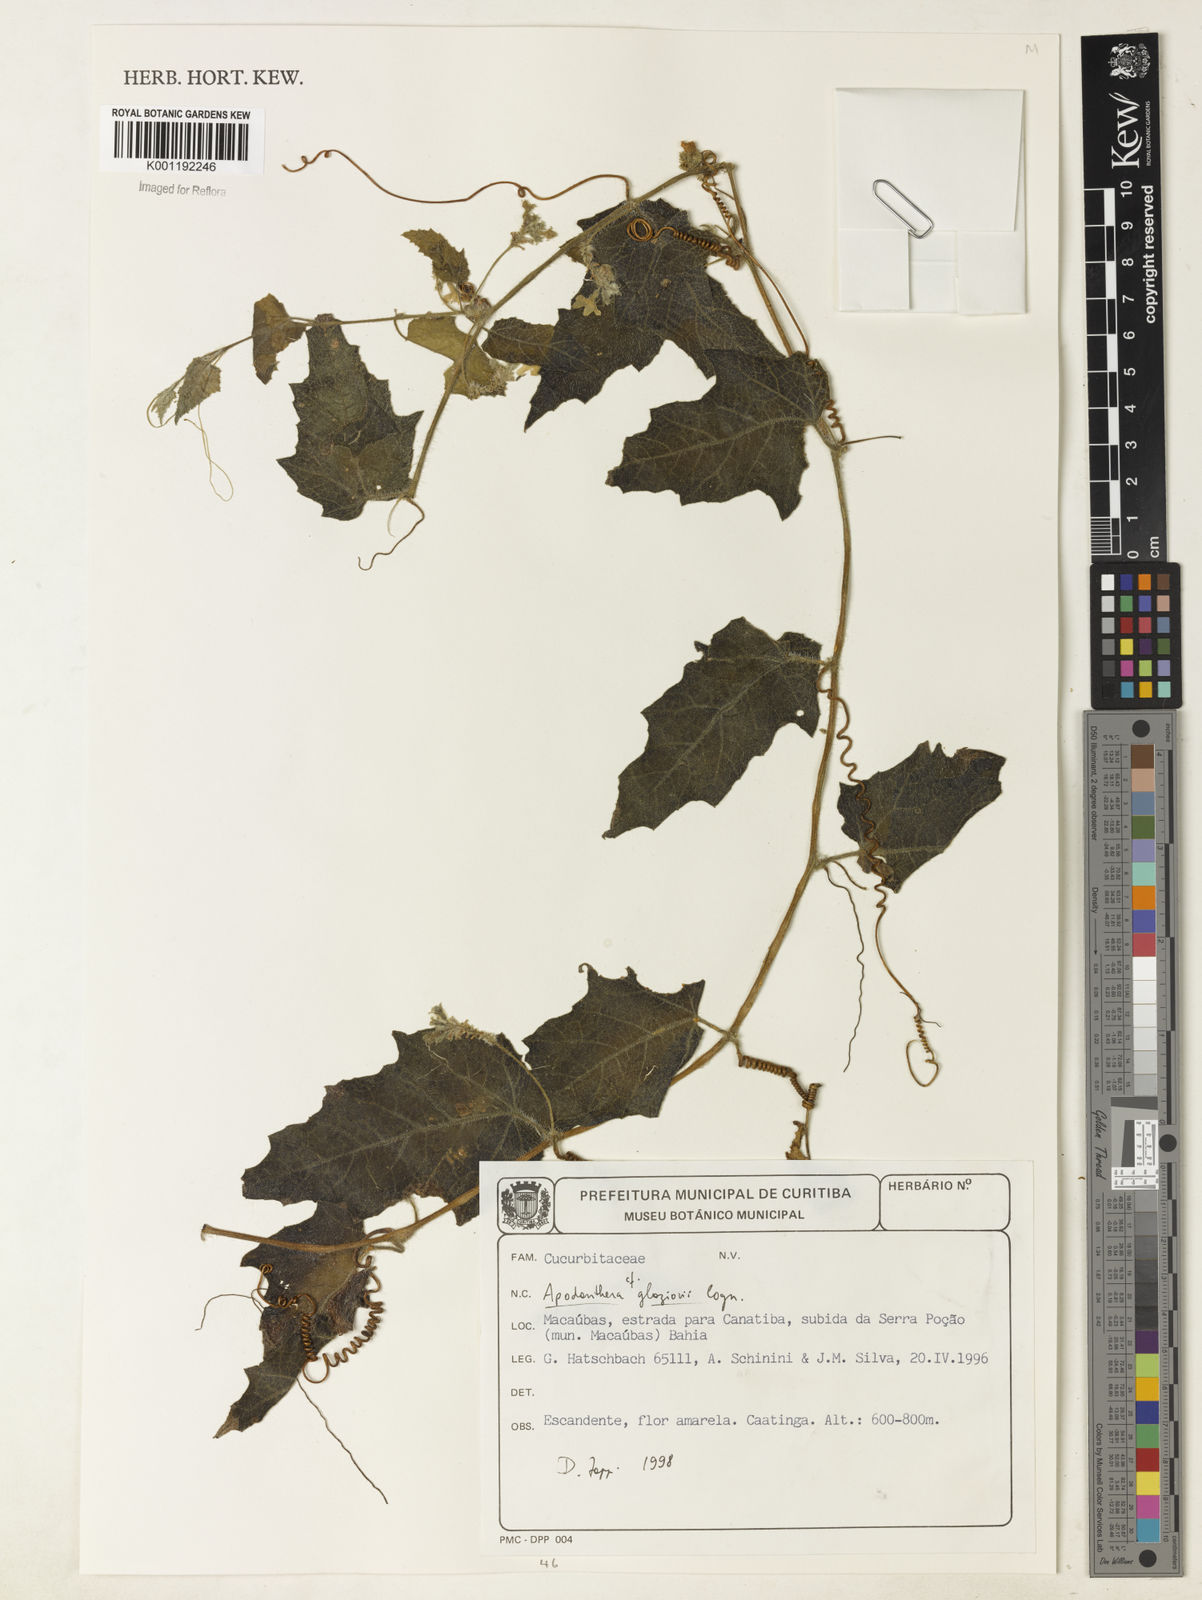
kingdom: Plantae
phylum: Tracheophyta
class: Magnoliopsida
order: Cucurbitales
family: Cucurbitaceae
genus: Apodanthera
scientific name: Apodanthera glaziovii
